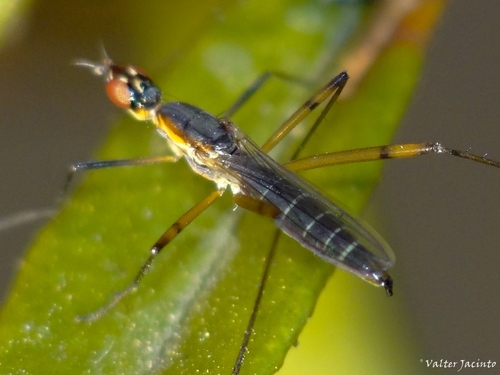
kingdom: Animalia
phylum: Arthropoda
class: Insecta
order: Diptera
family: Micropezidae
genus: Micropeza
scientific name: Micropeza grallatrix
